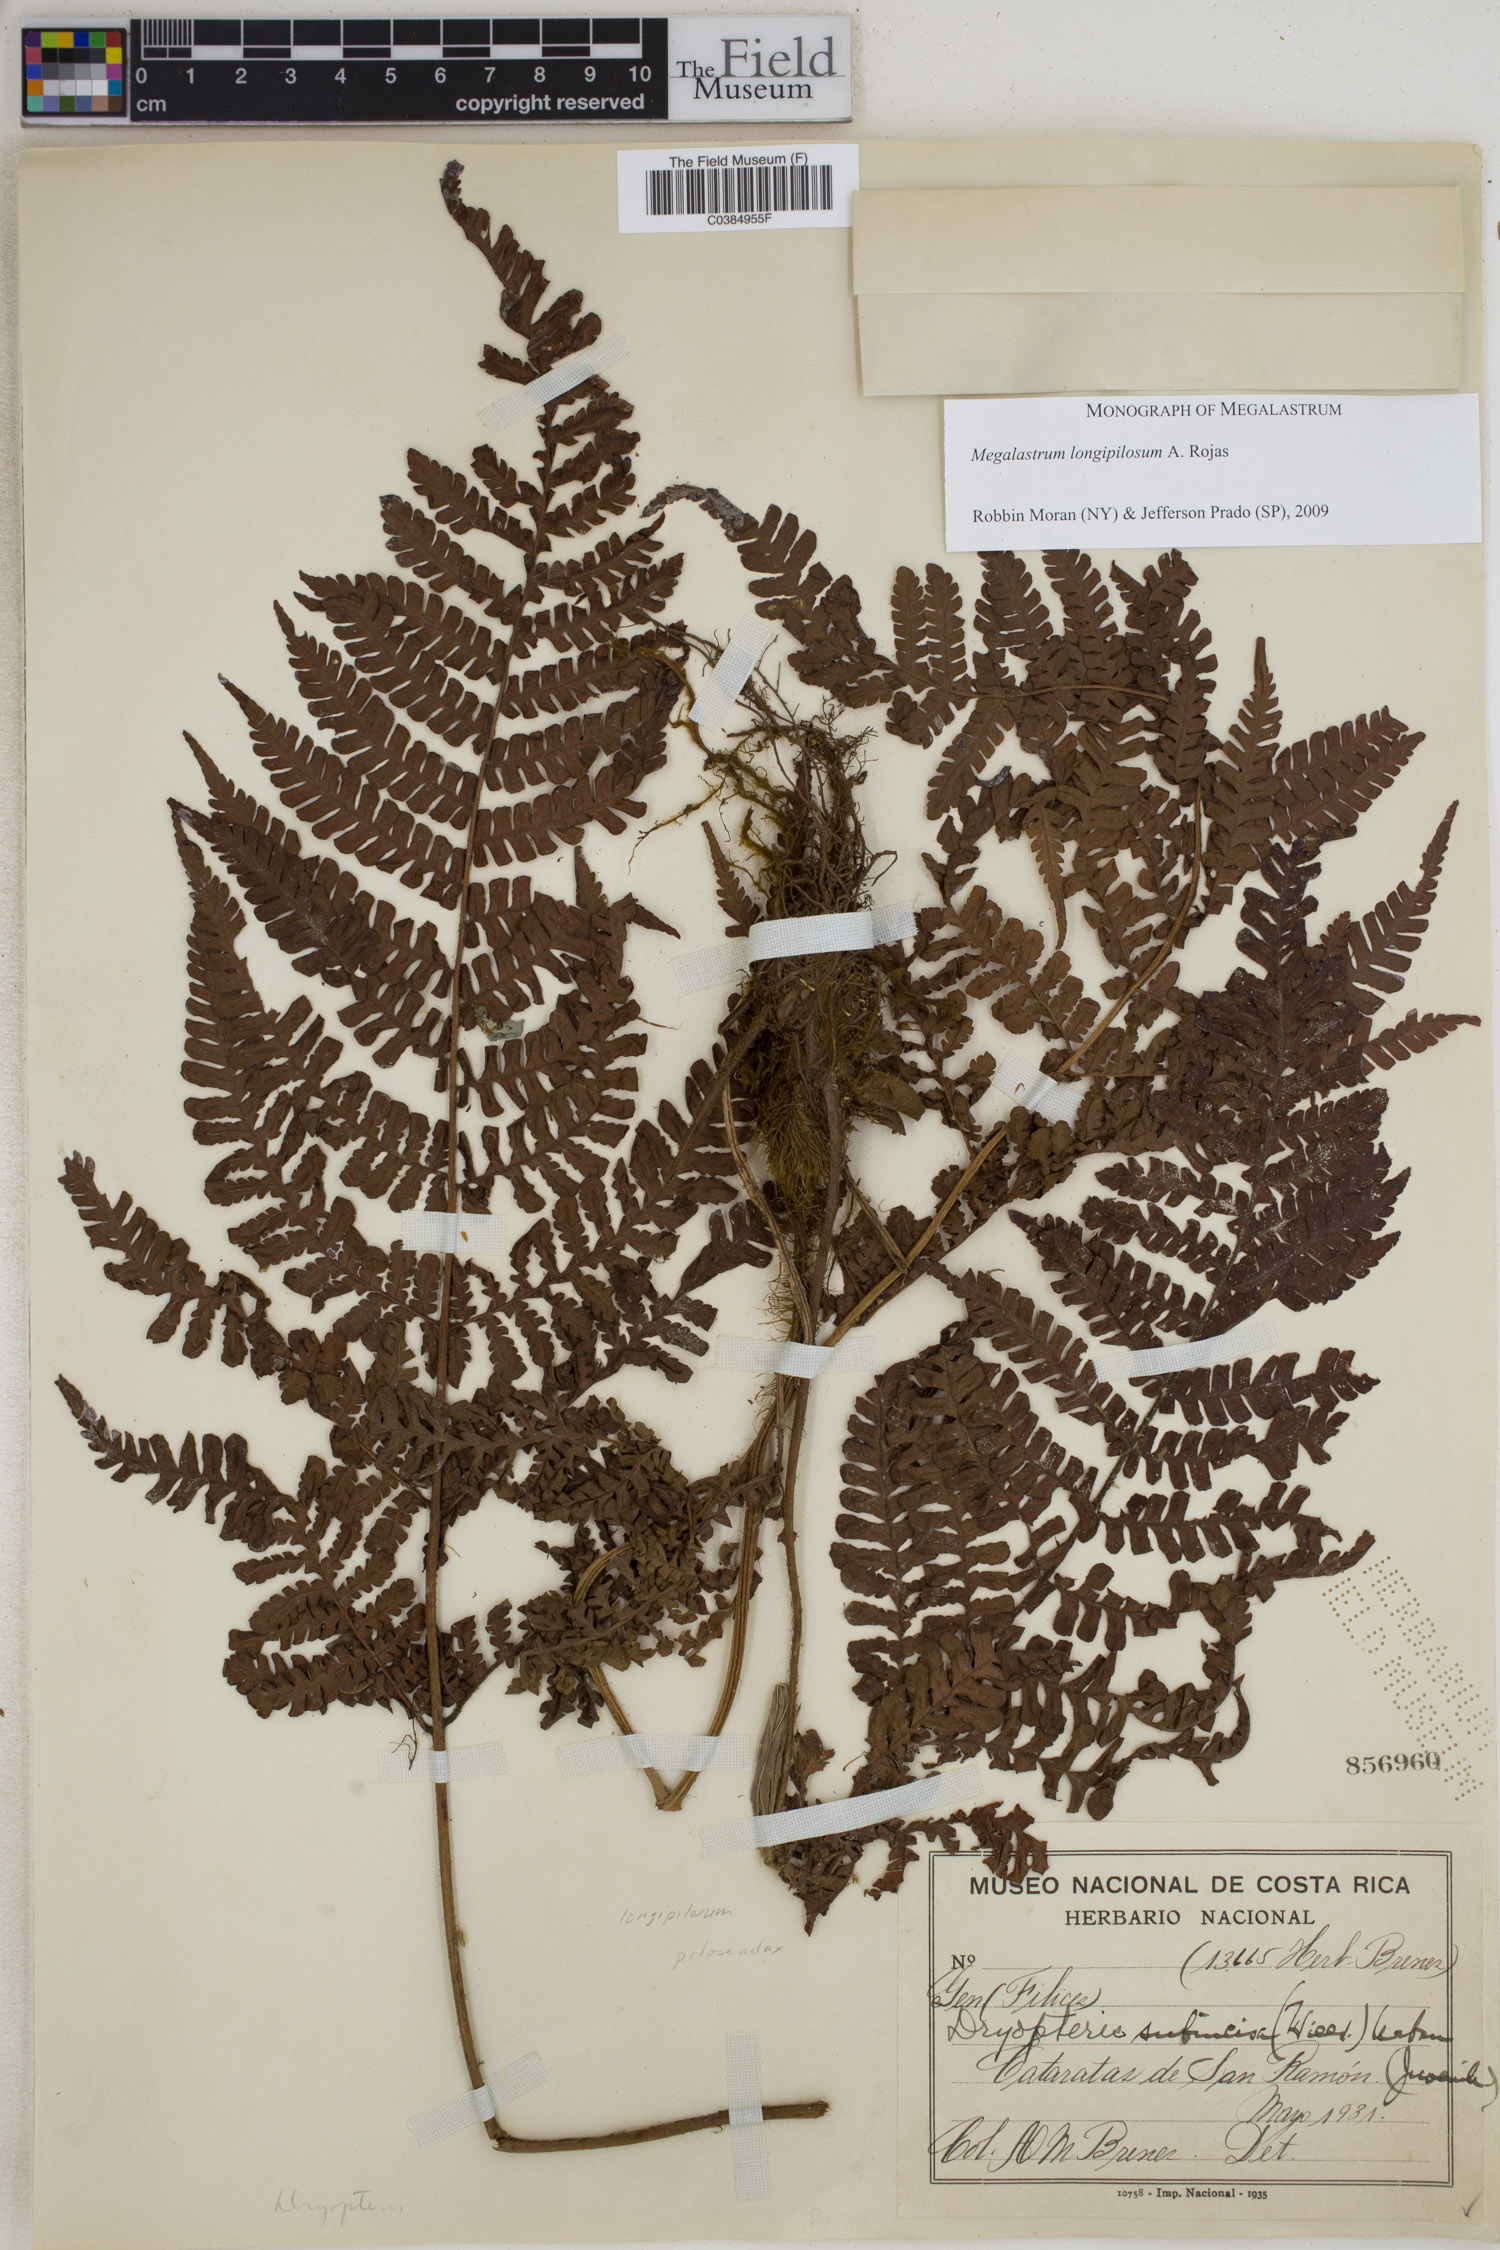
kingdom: Plantae
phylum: Tracheophyta
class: Polypodiopsida
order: Polypodiales
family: Dryopteridaceae
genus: Megalastrum
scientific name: Megalastrum longipilosum
